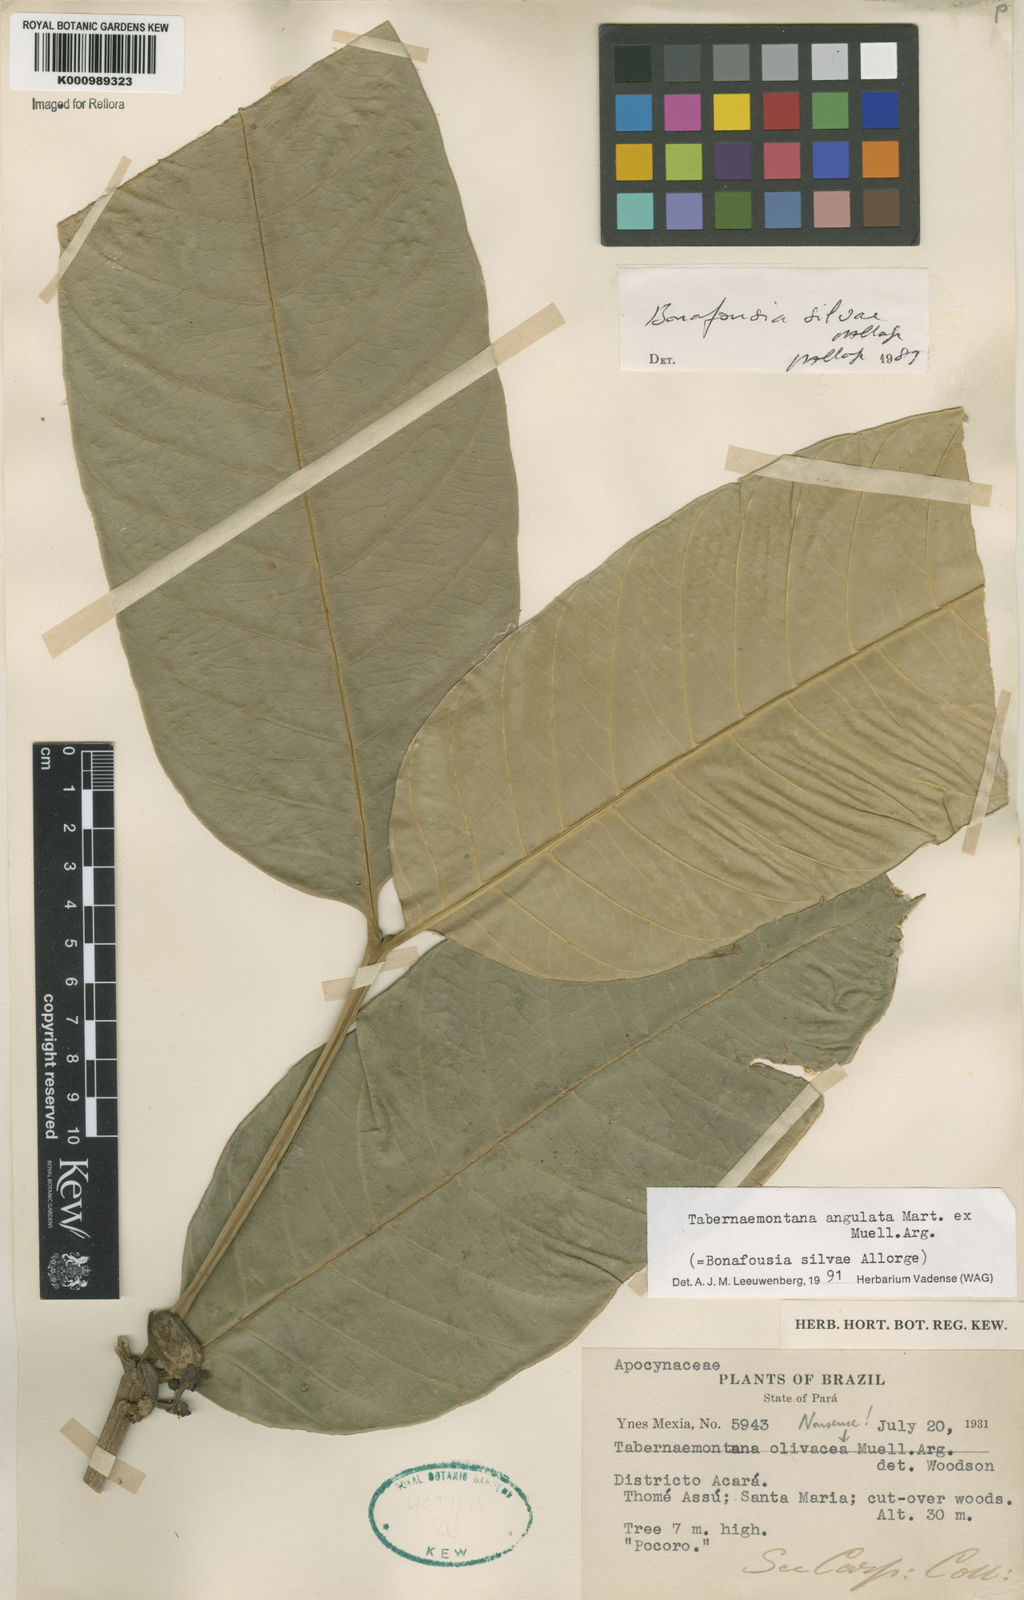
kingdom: Plantae
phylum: Tracheophyta
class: Magnoliopsida
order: Gentianales
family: Apocynaceae
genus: Tabernaemontana
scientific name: Tabernaemontana
